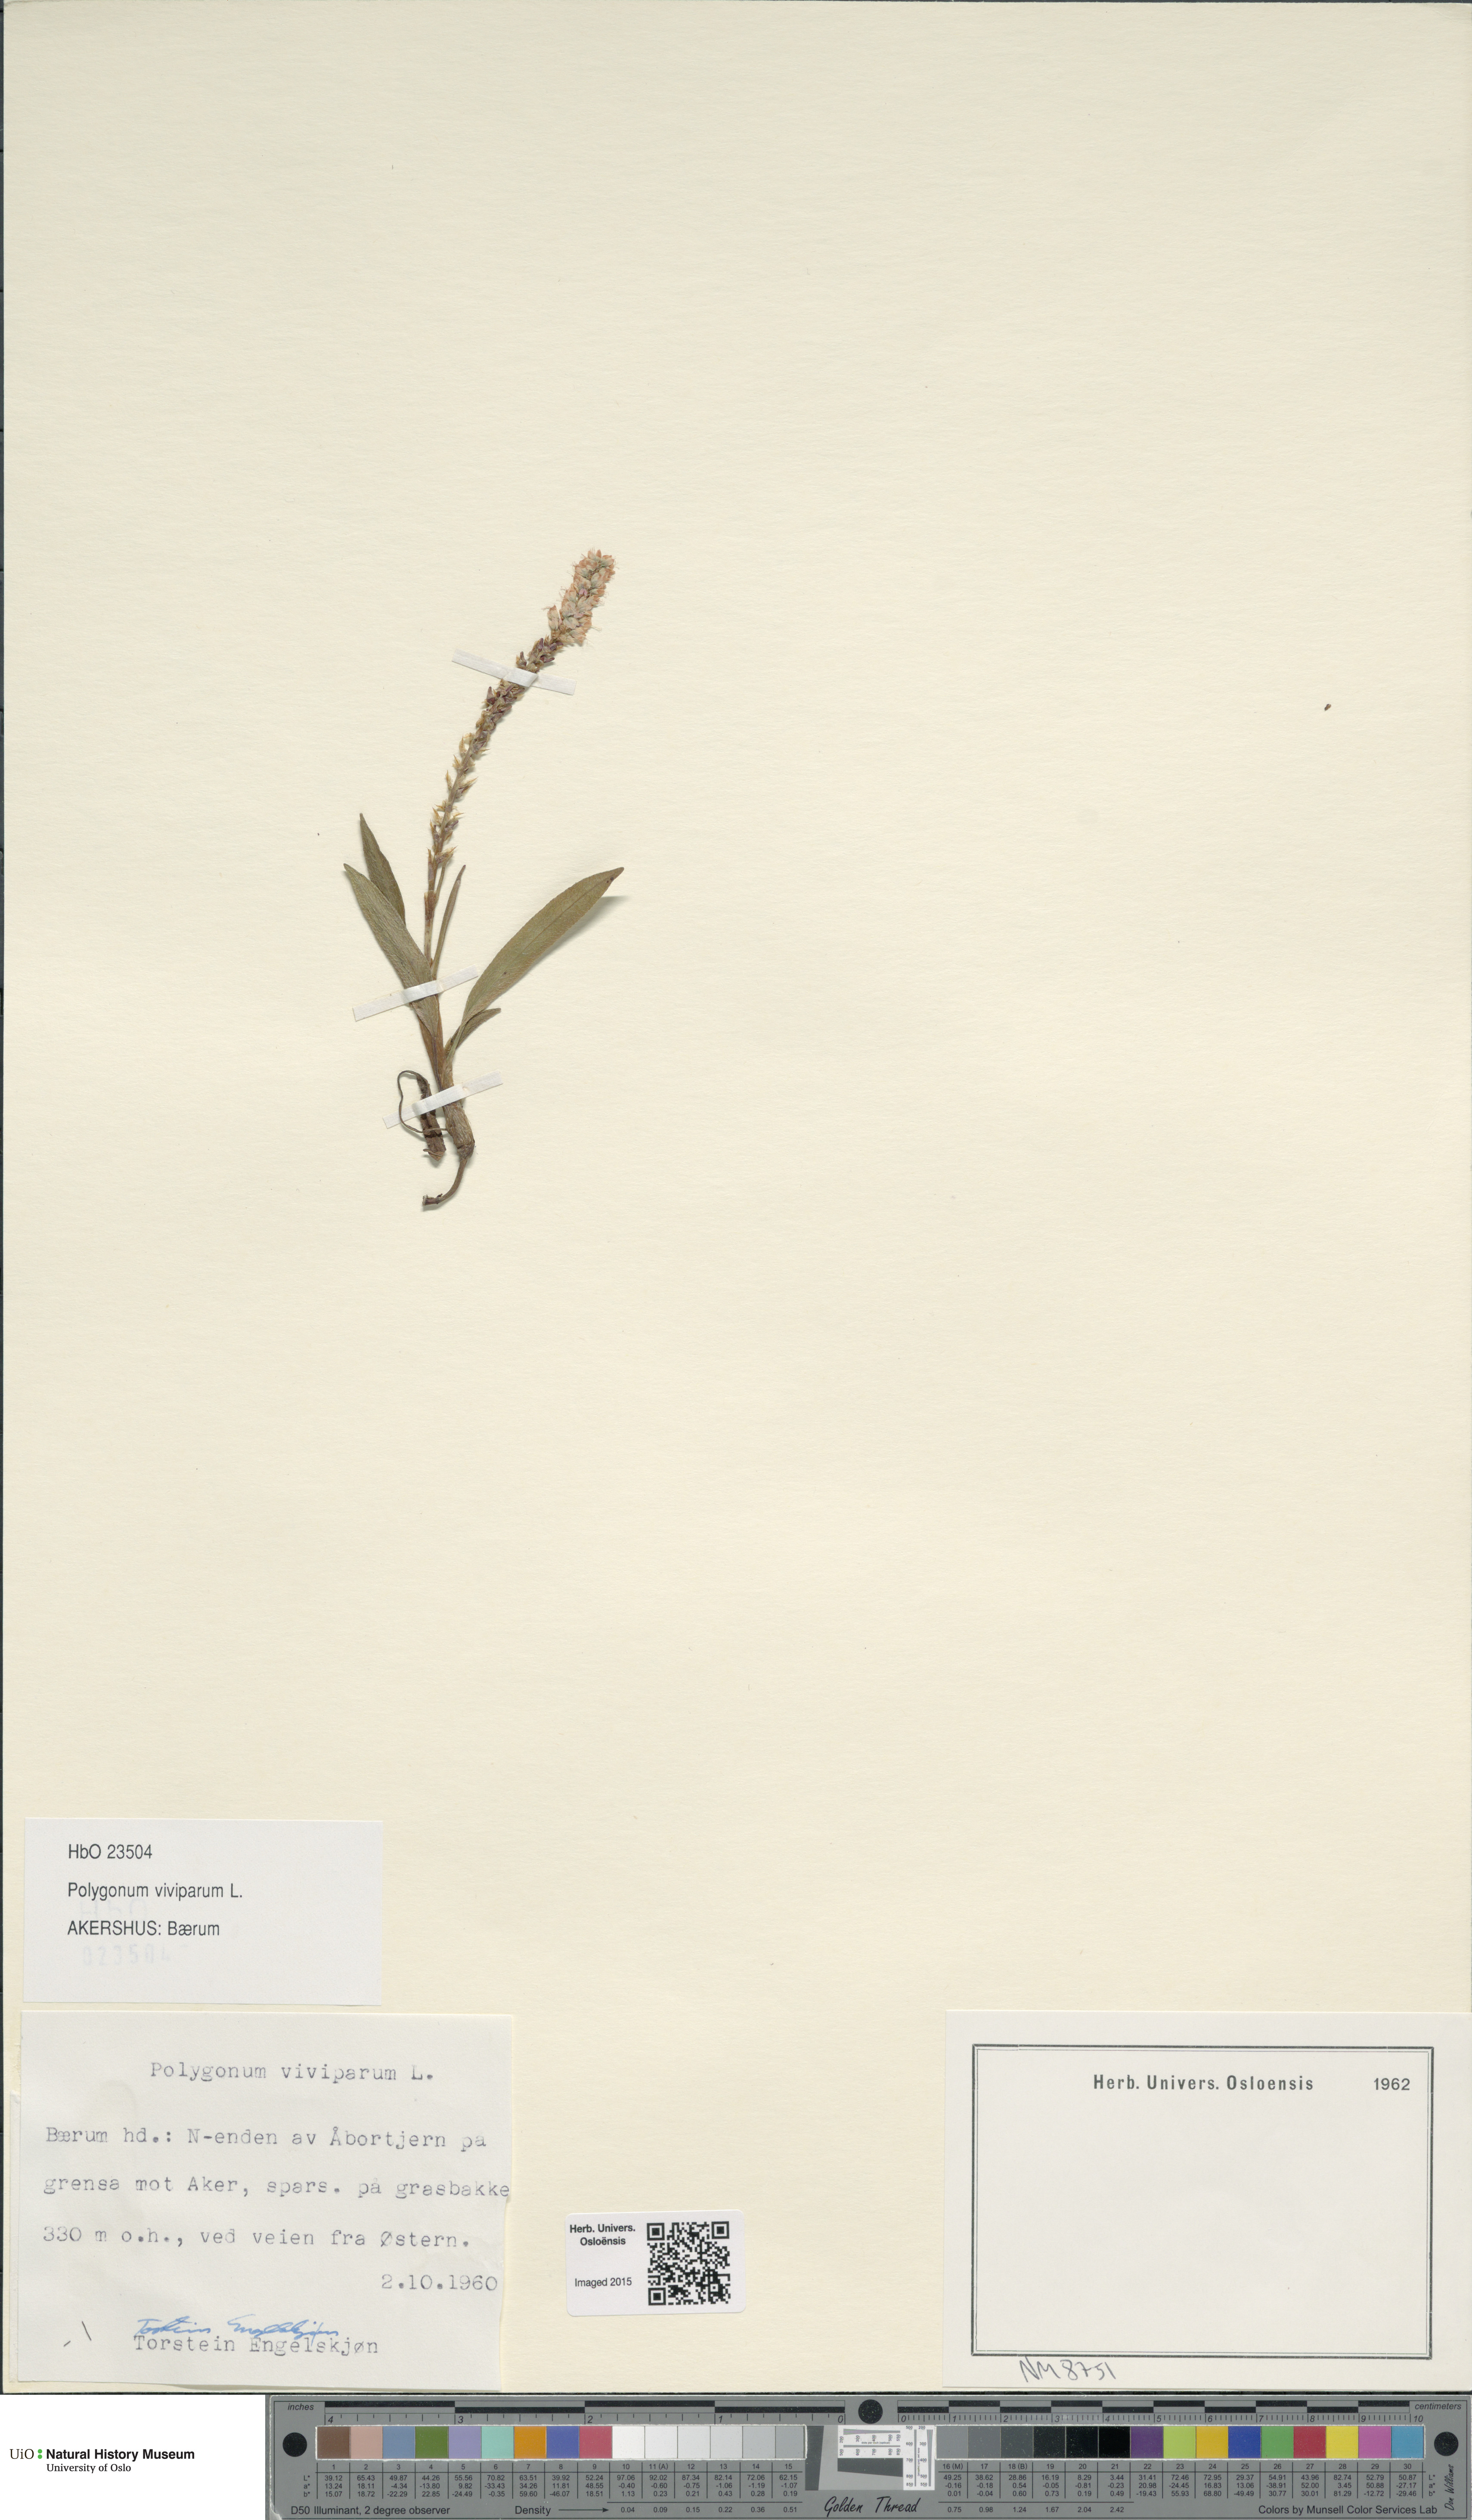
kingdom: Plantae
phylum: Tracheophyta
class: Magnoliopsida
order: Caryophyllales
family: Polygonaceae
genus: Bistorta
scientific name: Bistorta vivipara
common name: Alpine bistort
